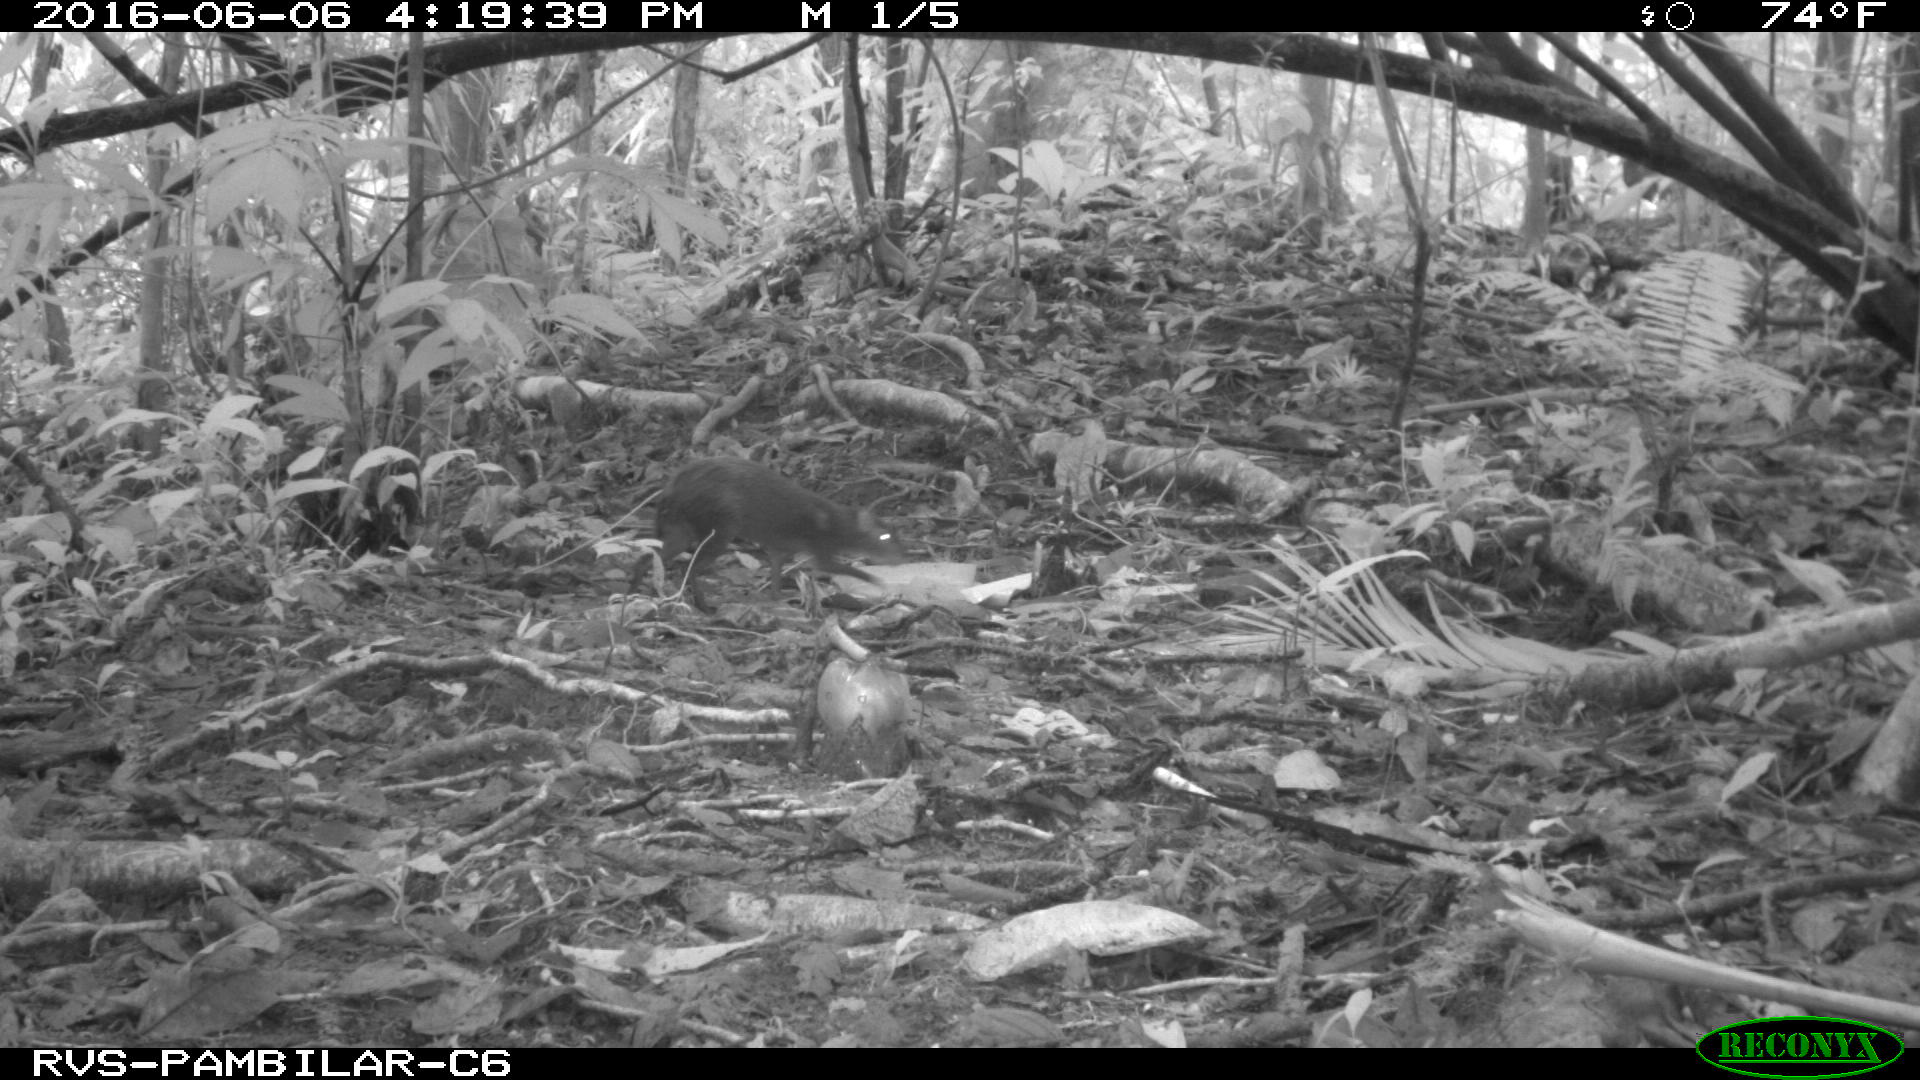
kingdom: Animalia
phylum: Chordata
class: Mammalia
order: Rodentia
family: Dasyproctidae
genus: Dasyprocta
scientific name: Dasyprocta punctata
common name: Central american agouti
